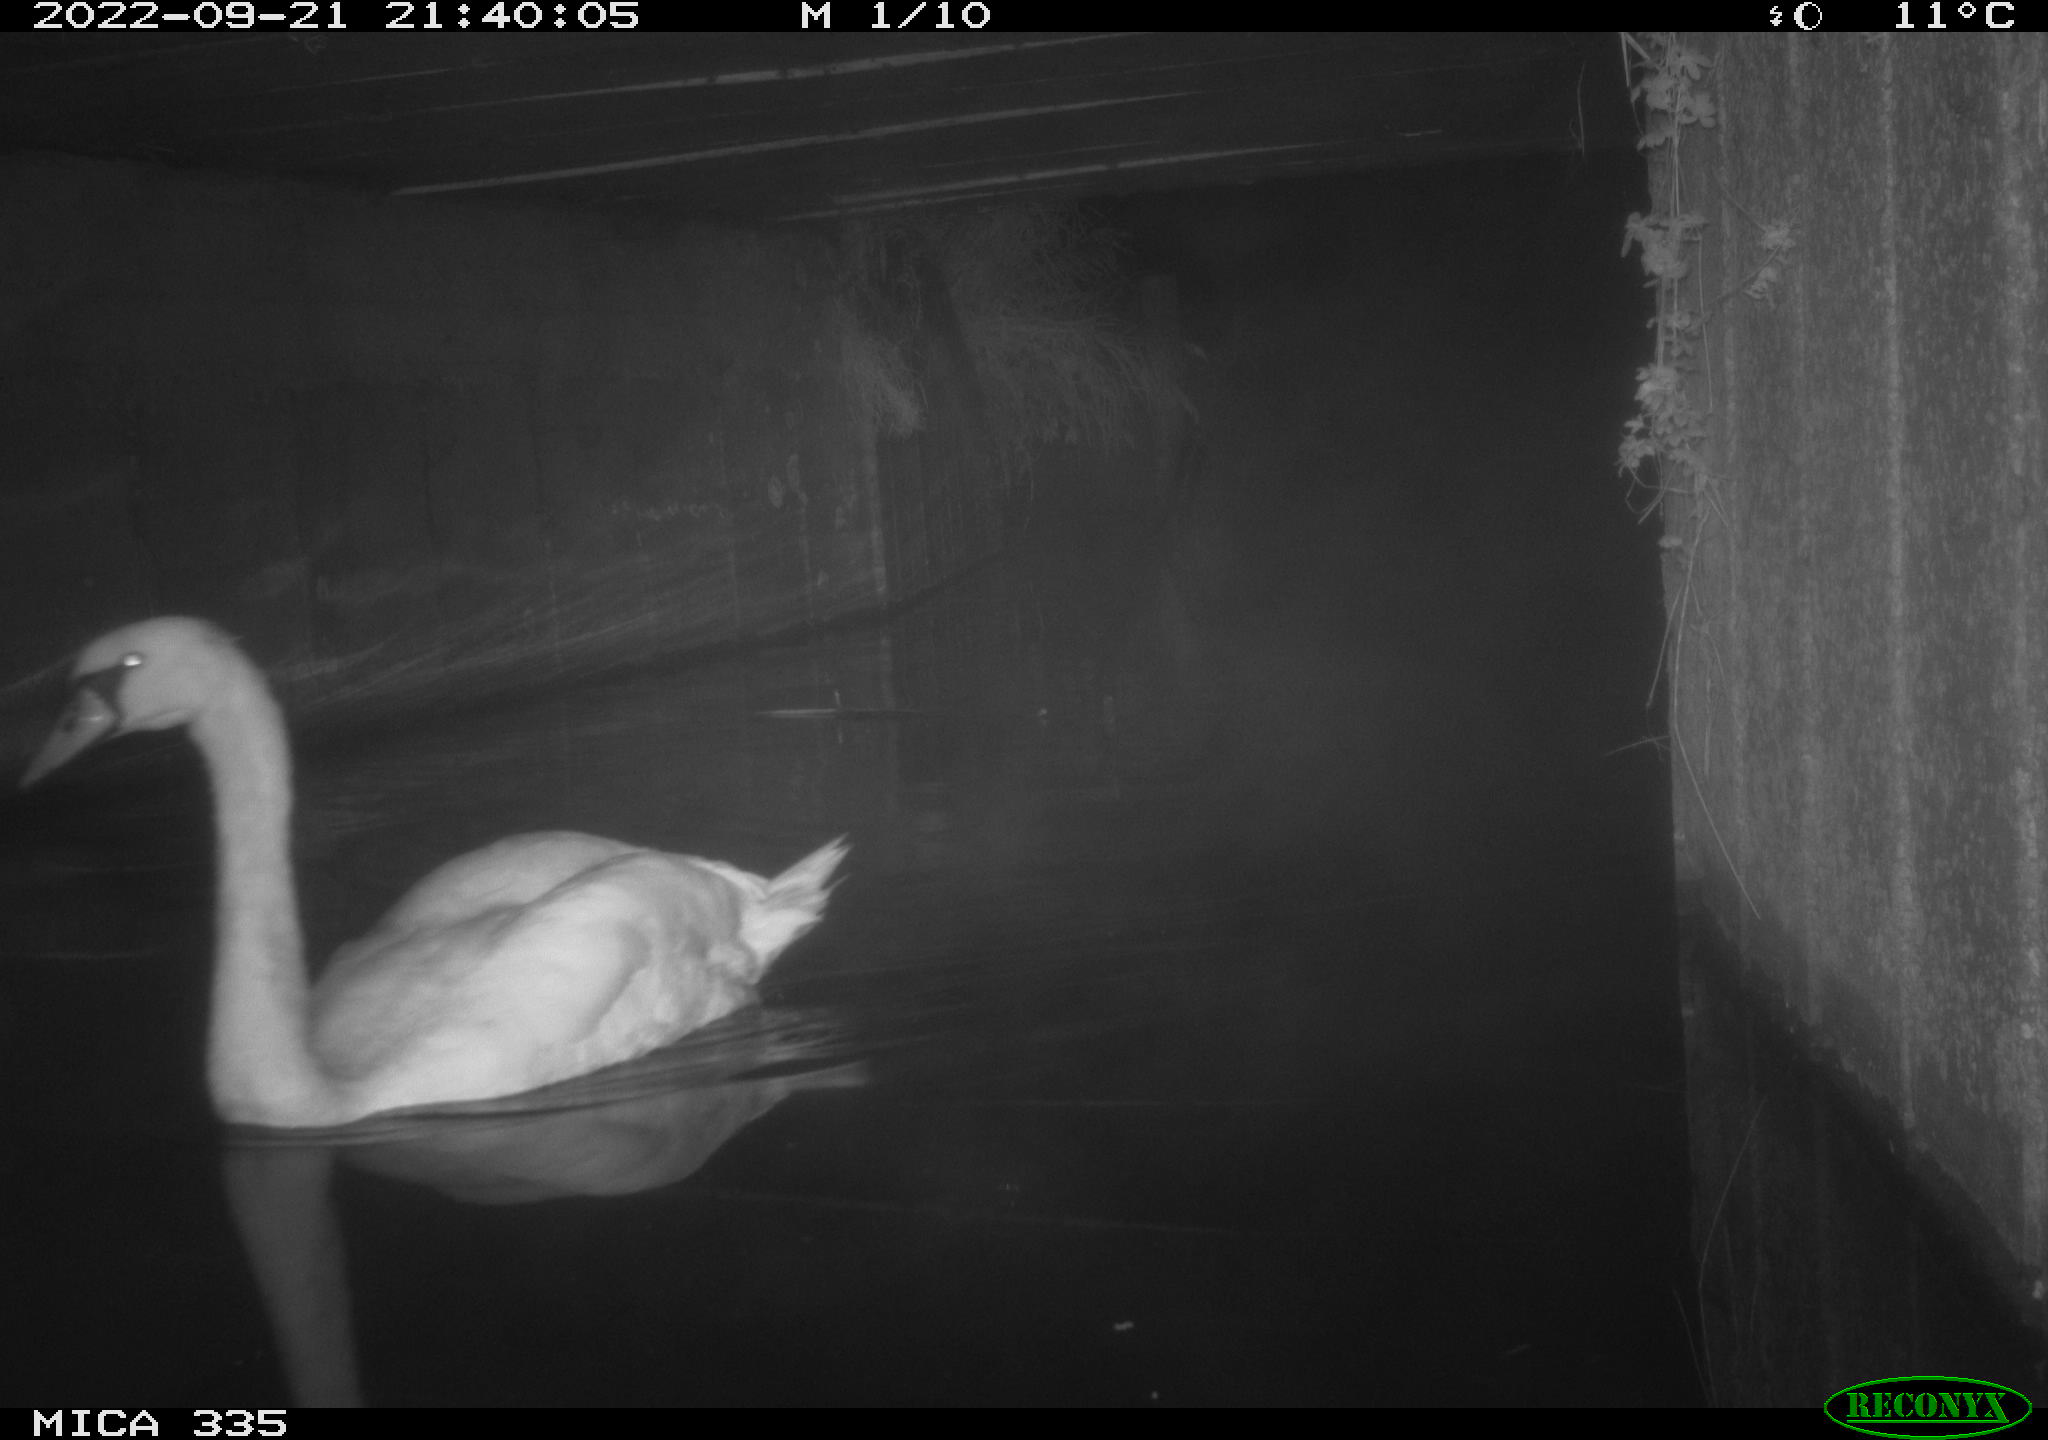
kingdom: Animalia
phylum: Chordata
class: Aves
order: Anseriformes
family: Anatidae
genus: Cygnus
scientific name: Cygnus olor
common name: Mute swan
